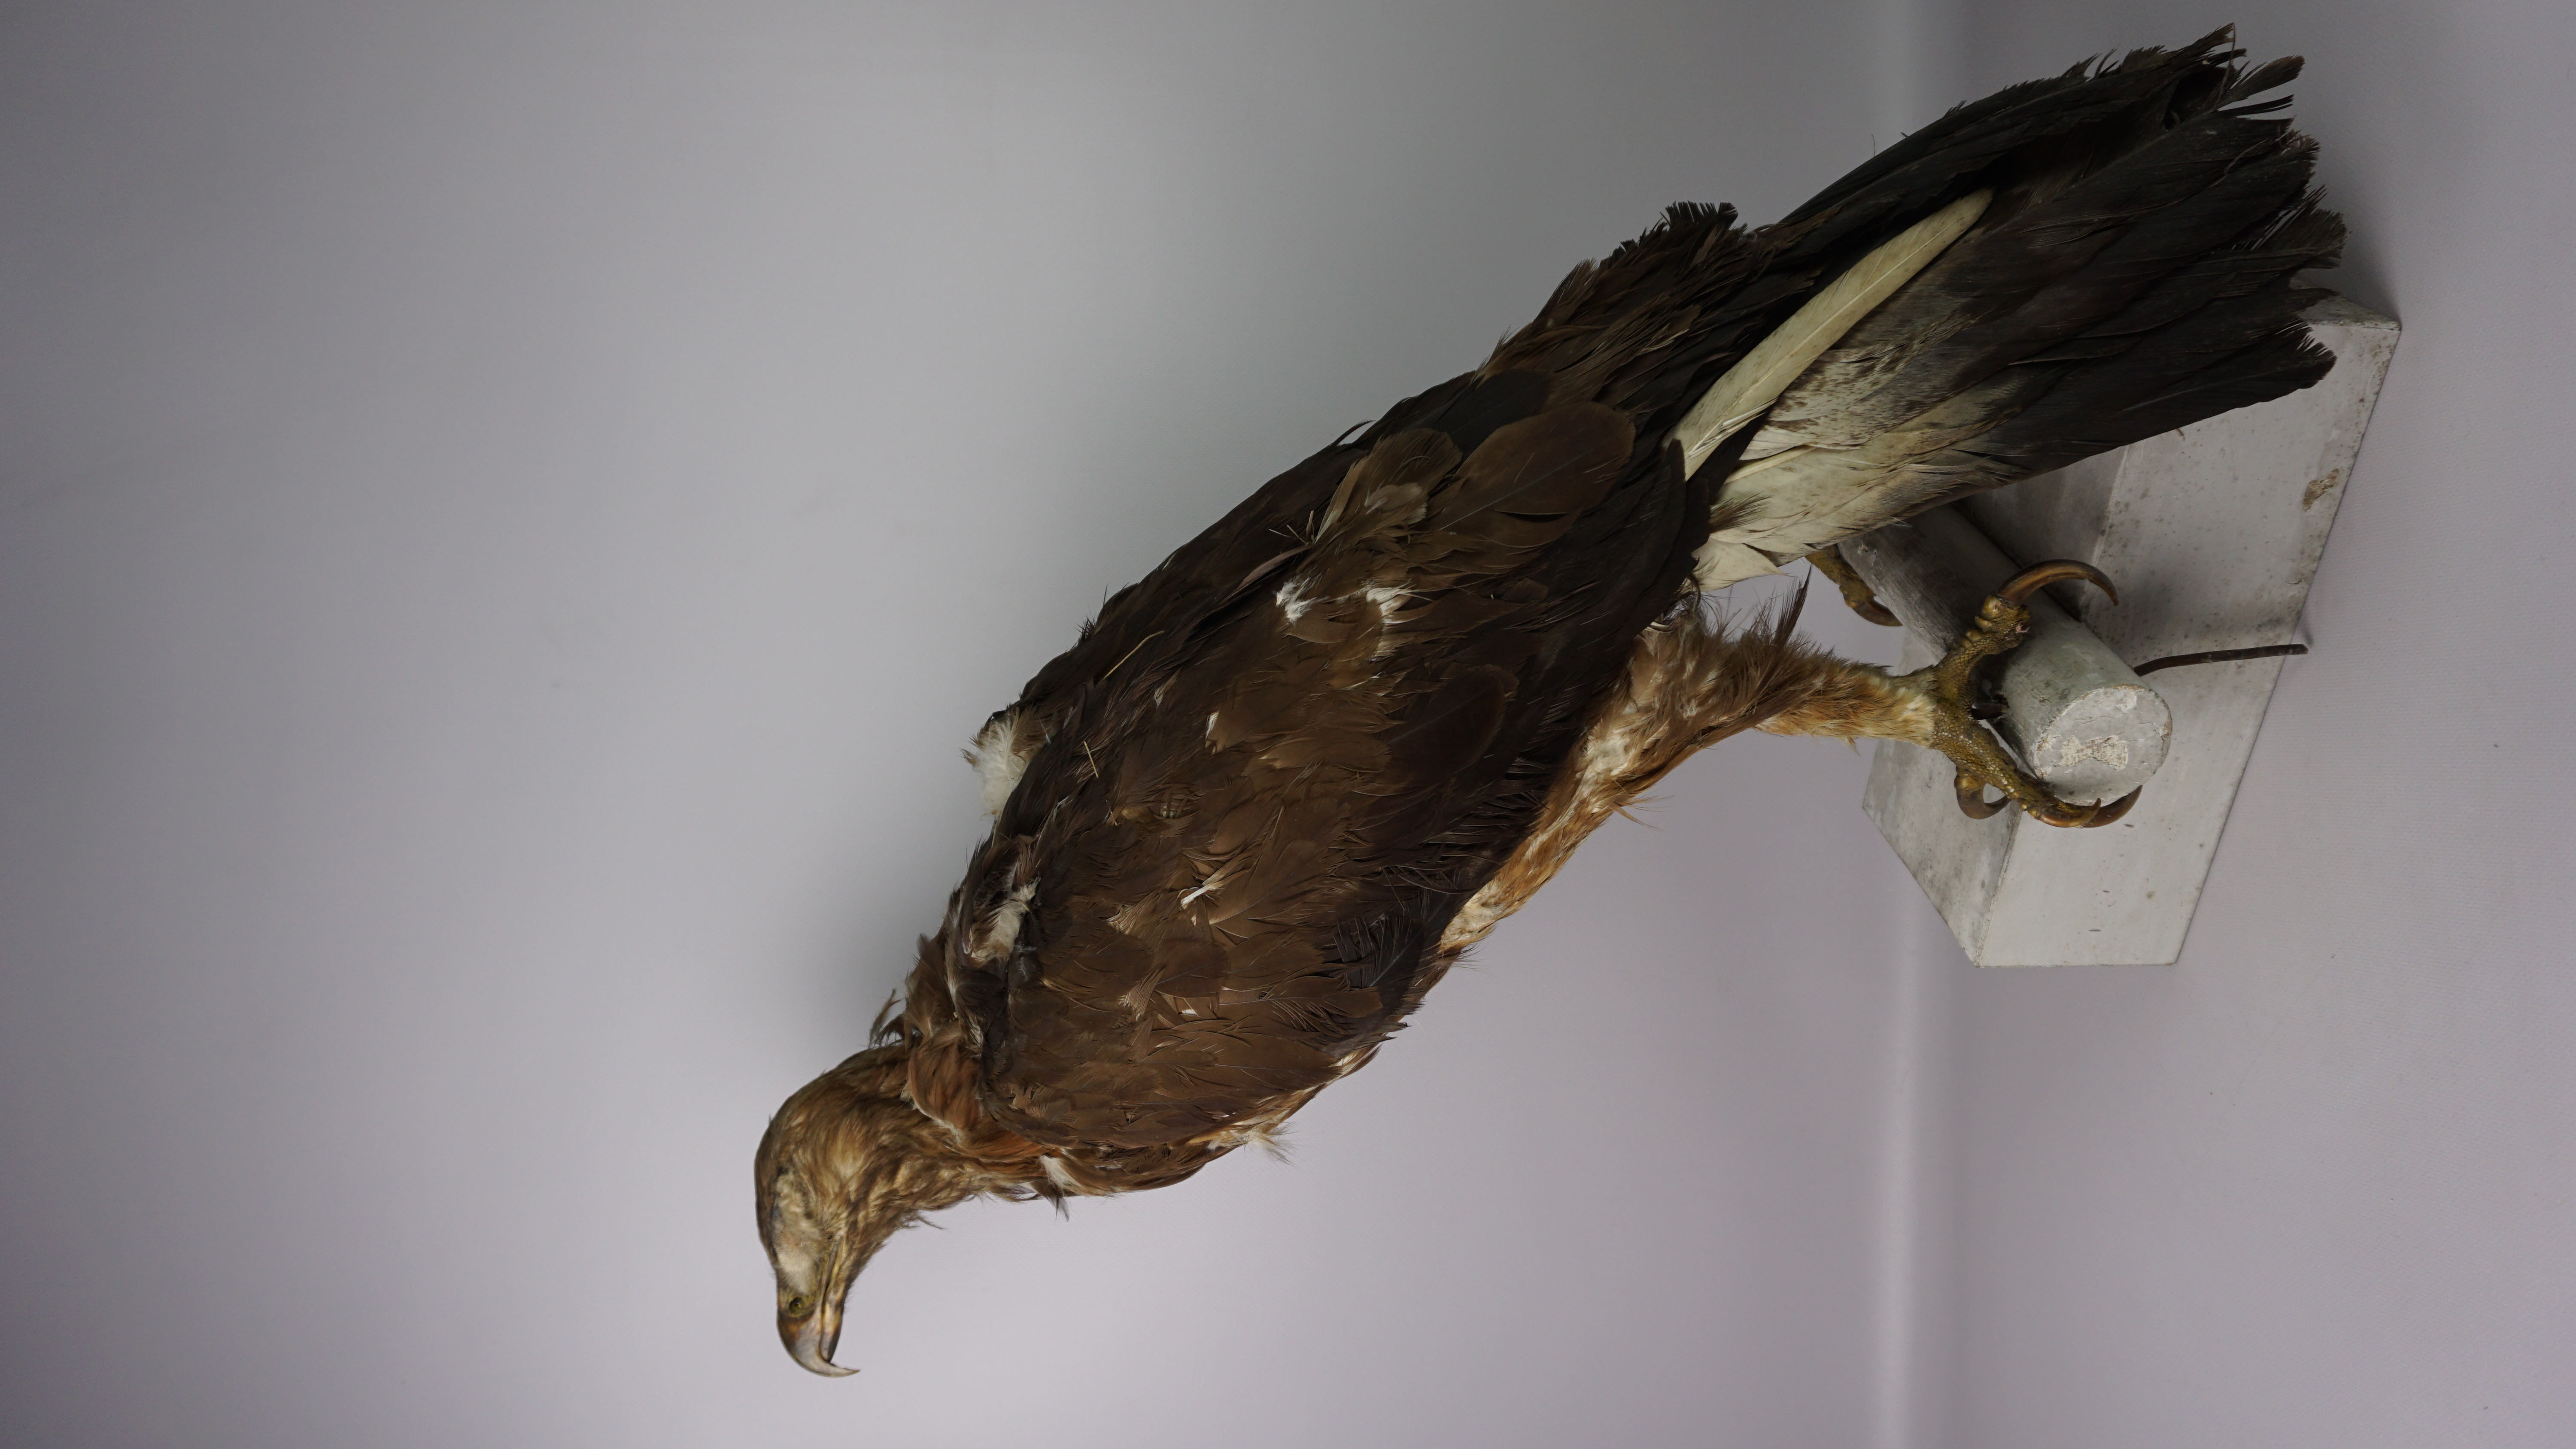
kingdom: Animalia
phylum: Chordata
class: Aves
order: Accipitriformes
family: Accipitridae
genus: Aquila
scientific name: Aquila chrysaetos
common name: Golden eagle
